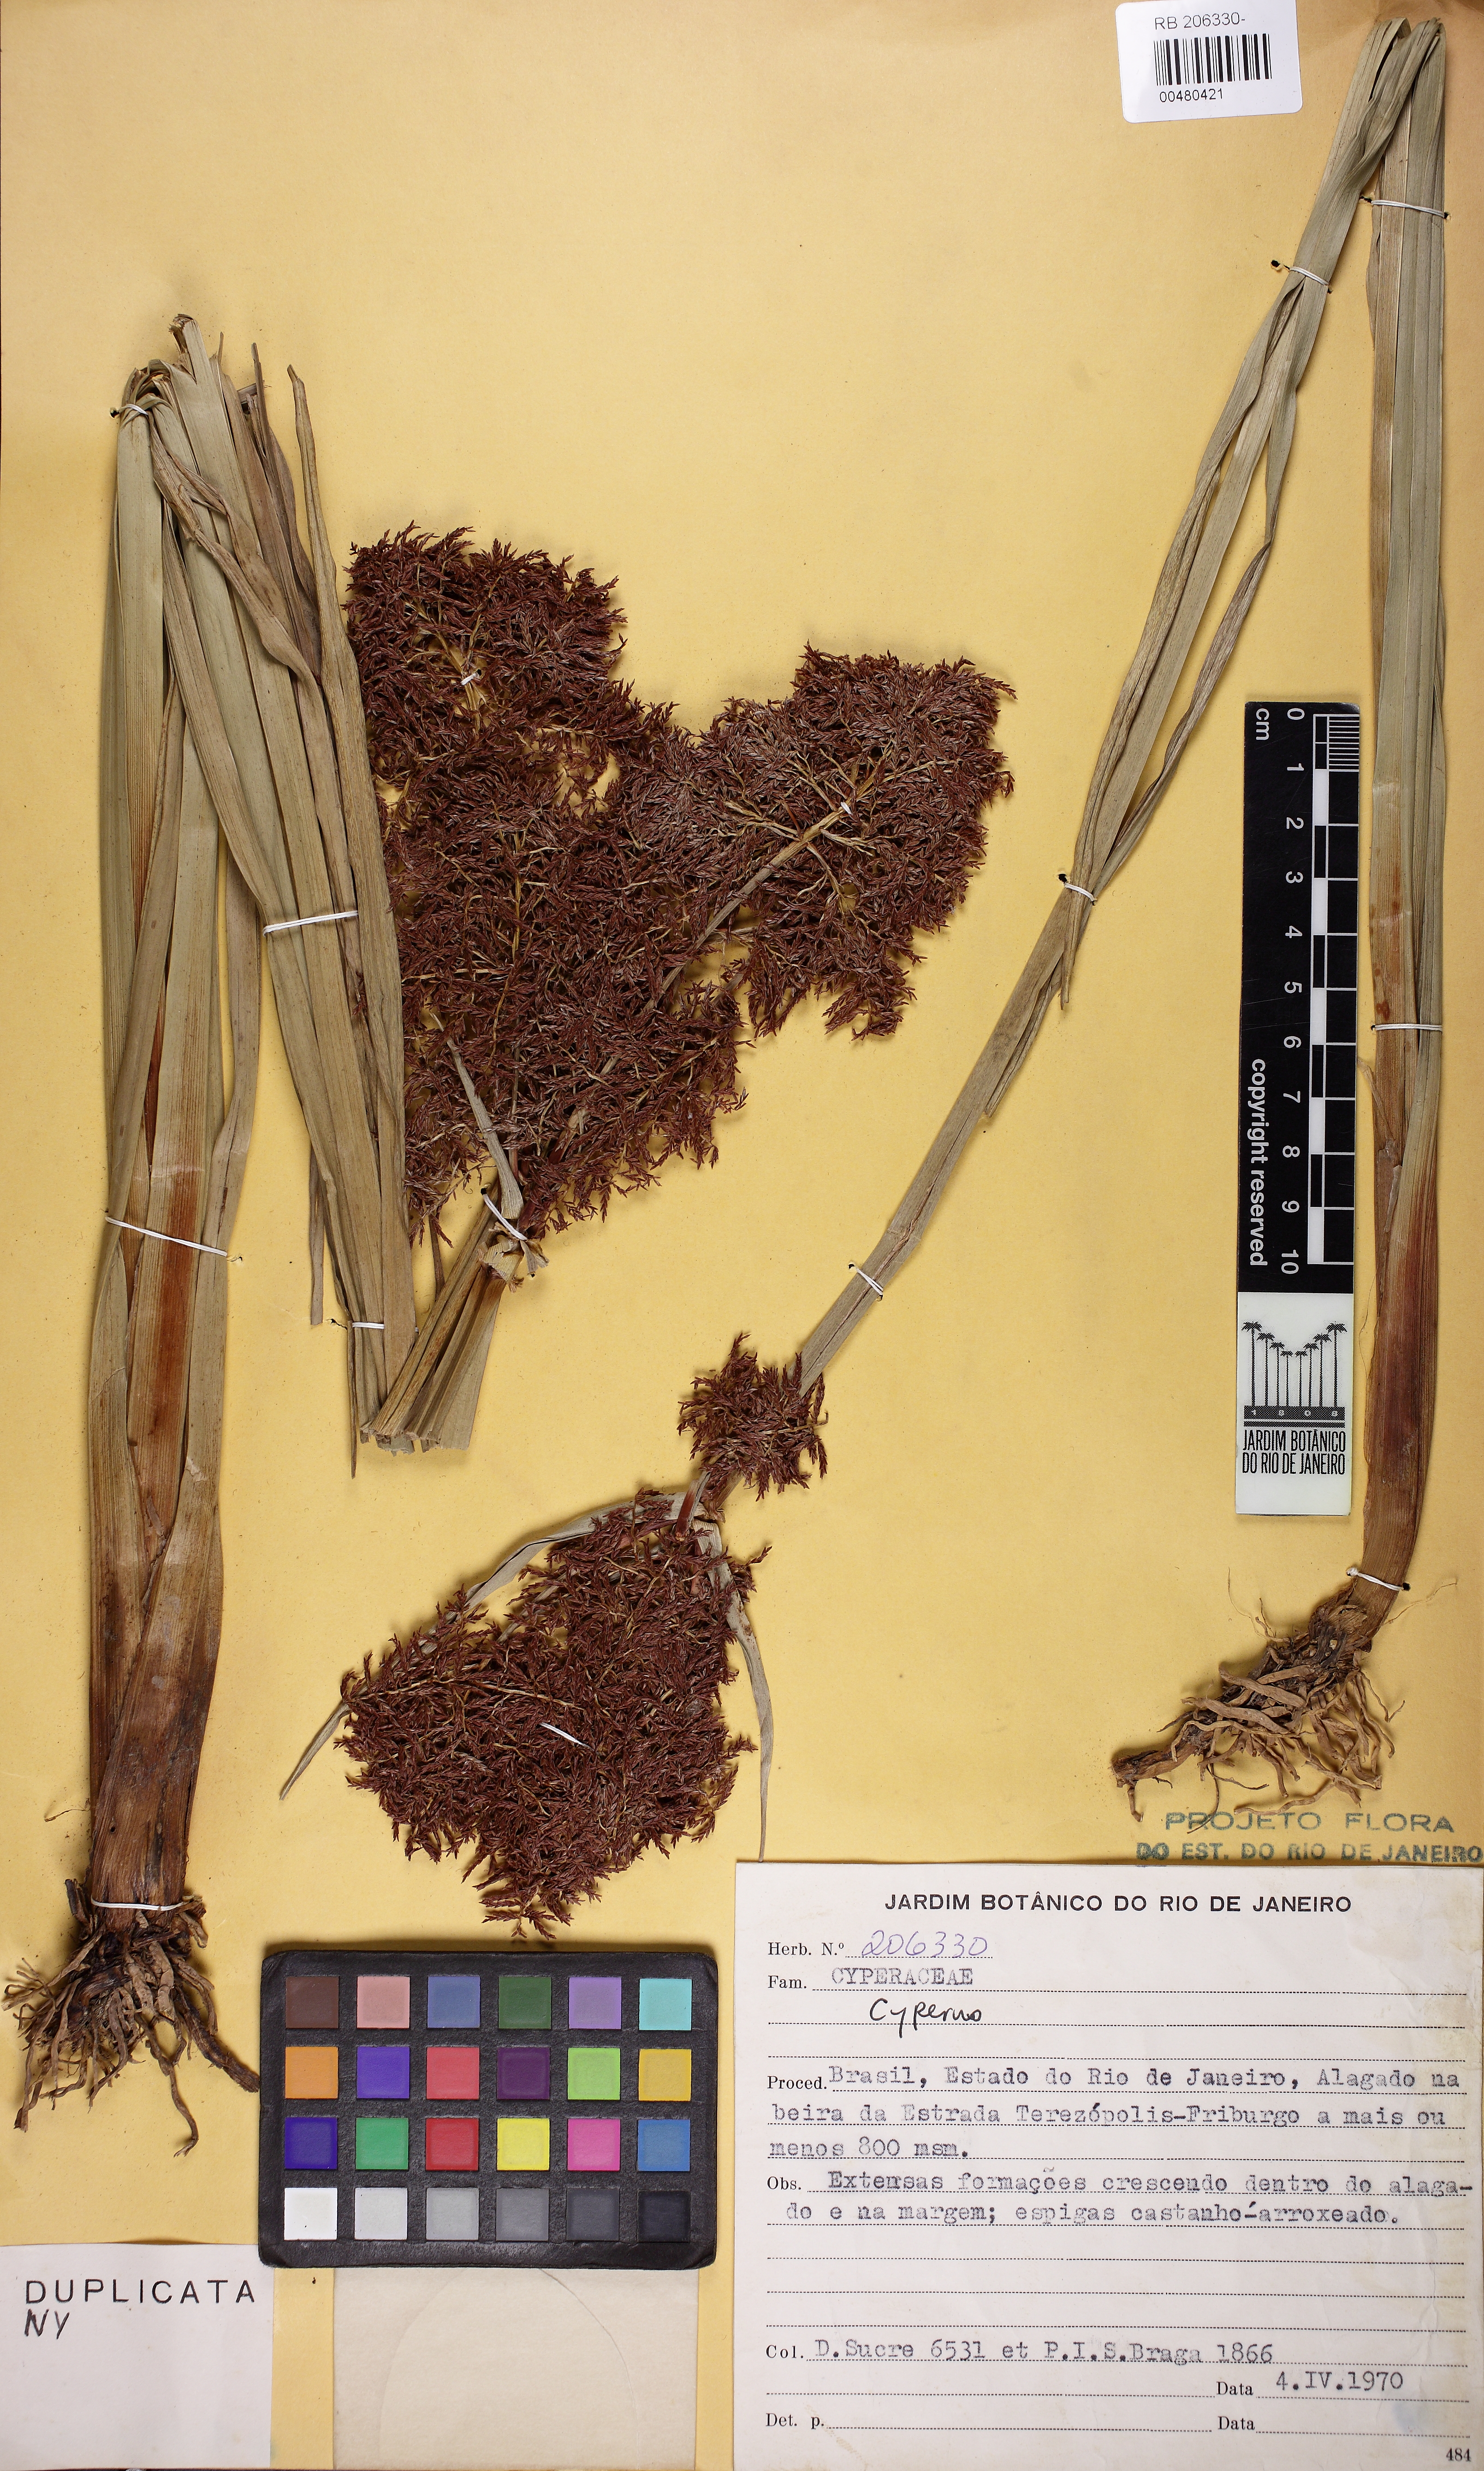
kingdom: Plantae
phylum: Tracheophyta
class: Liliopsida
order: Poales
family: Cyperaceae
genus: Cyperus
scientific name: Cyperus mundulus
